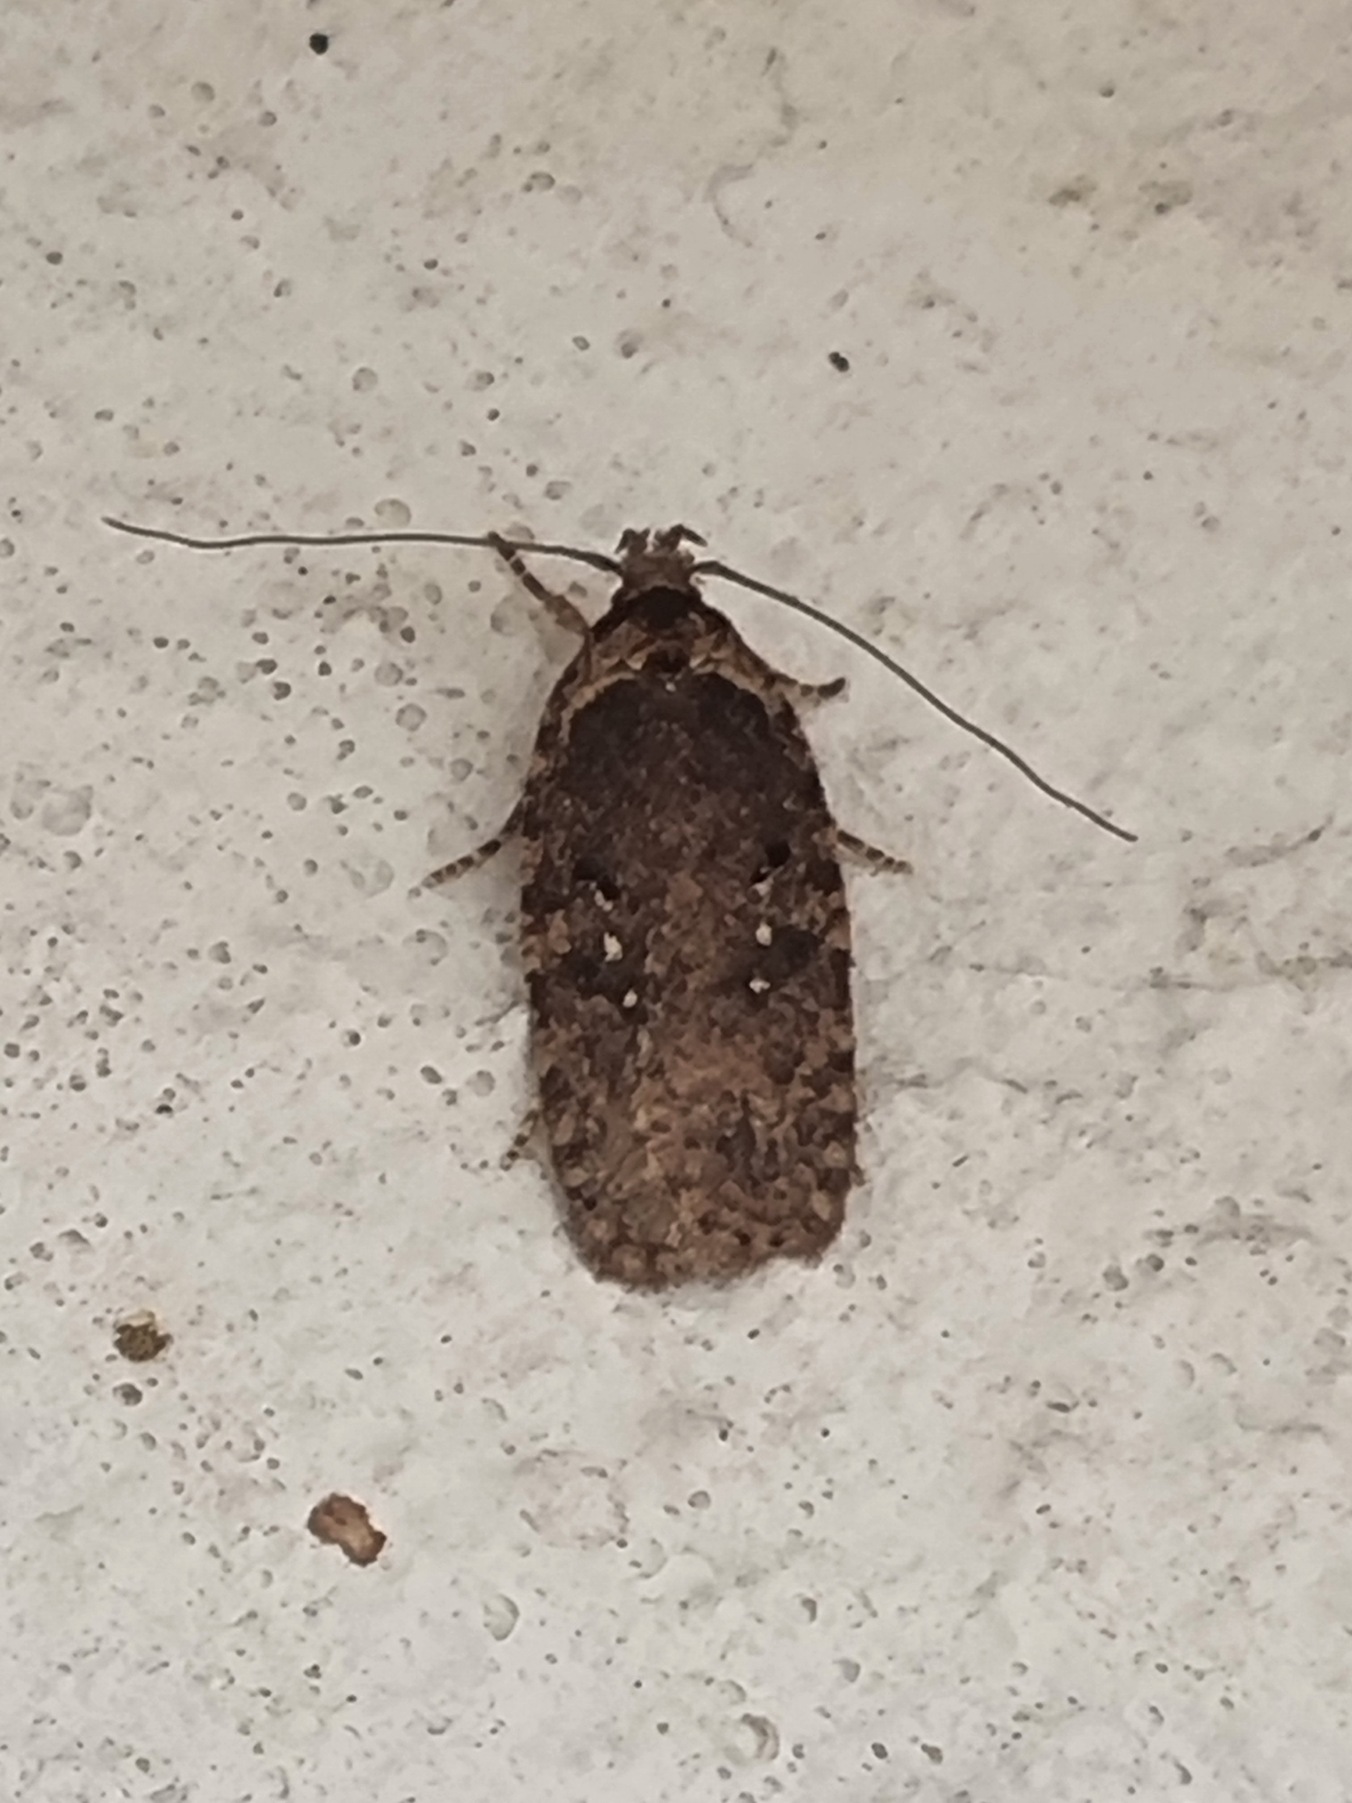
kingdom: Animalia
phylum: Arthropoda
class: Insecta
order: Lepidoptera
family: Depressariidae
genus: Agonopterix
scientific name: Agonopterix heracliana
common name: Almindelig fladmøl
